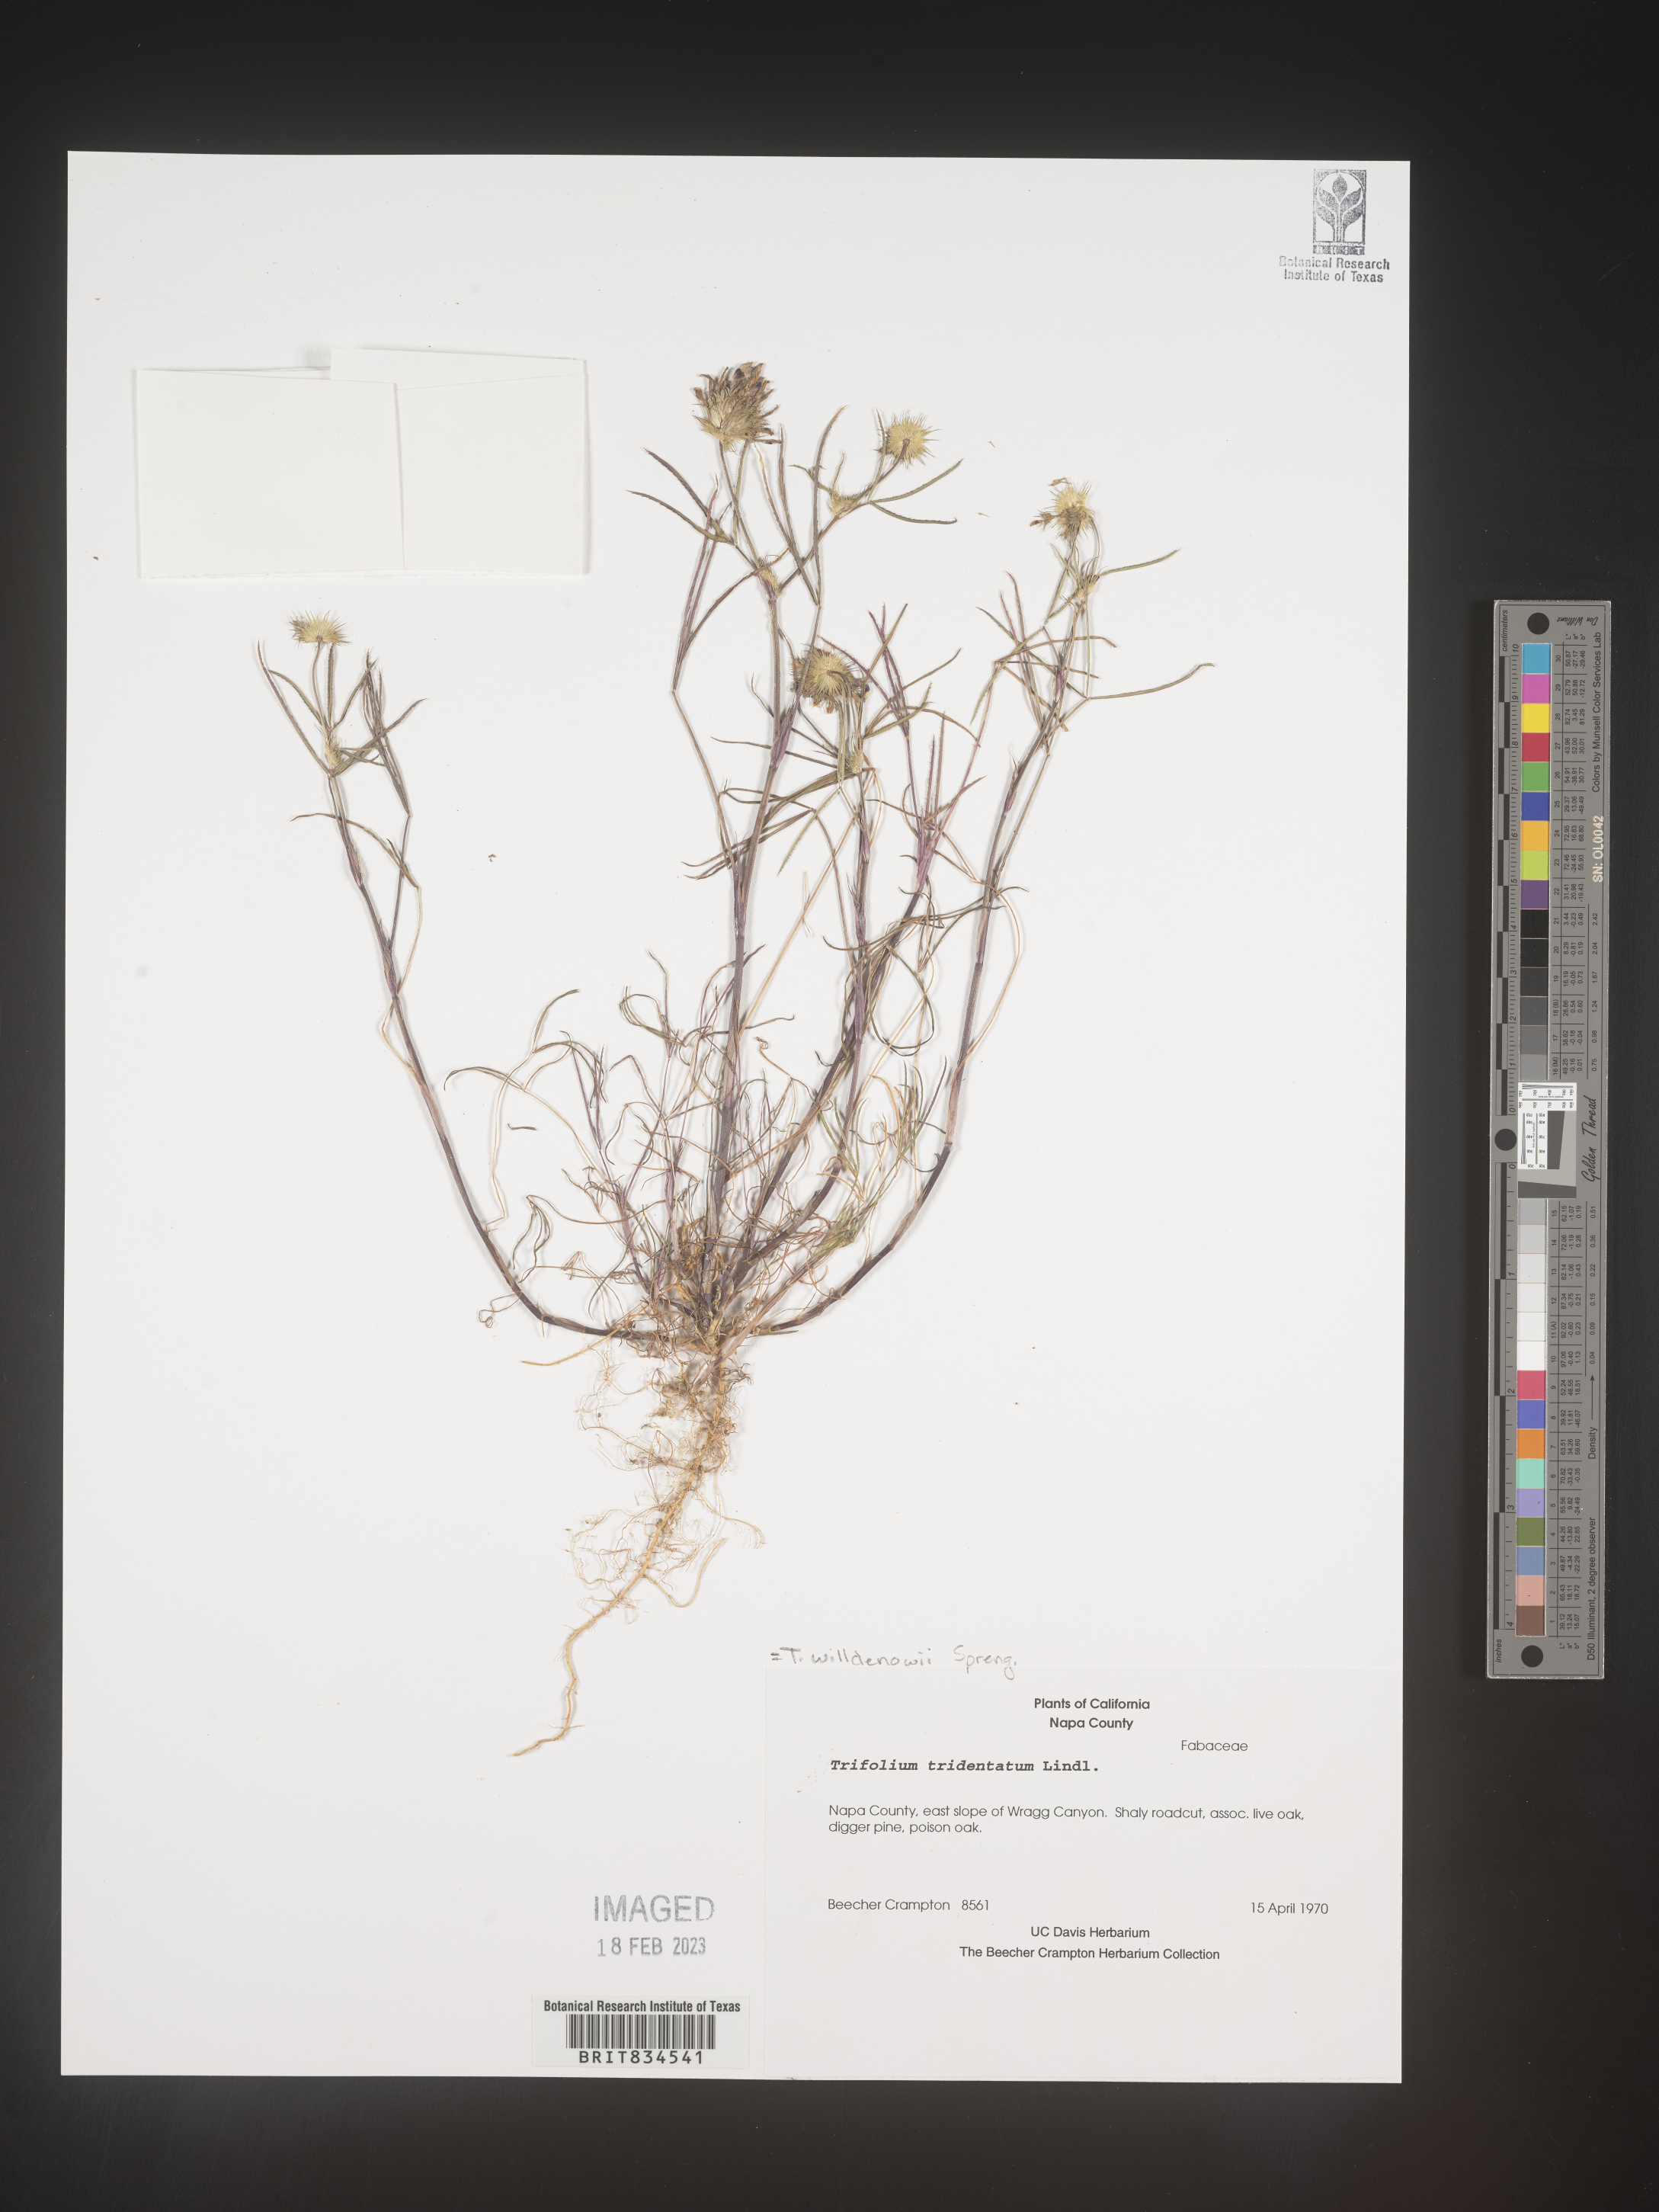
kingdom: Plantae
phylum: Tracheophyta
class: Magnoliopsida
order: Fabales
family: Fabaceae
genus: Trifolium
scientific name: Trifolium
